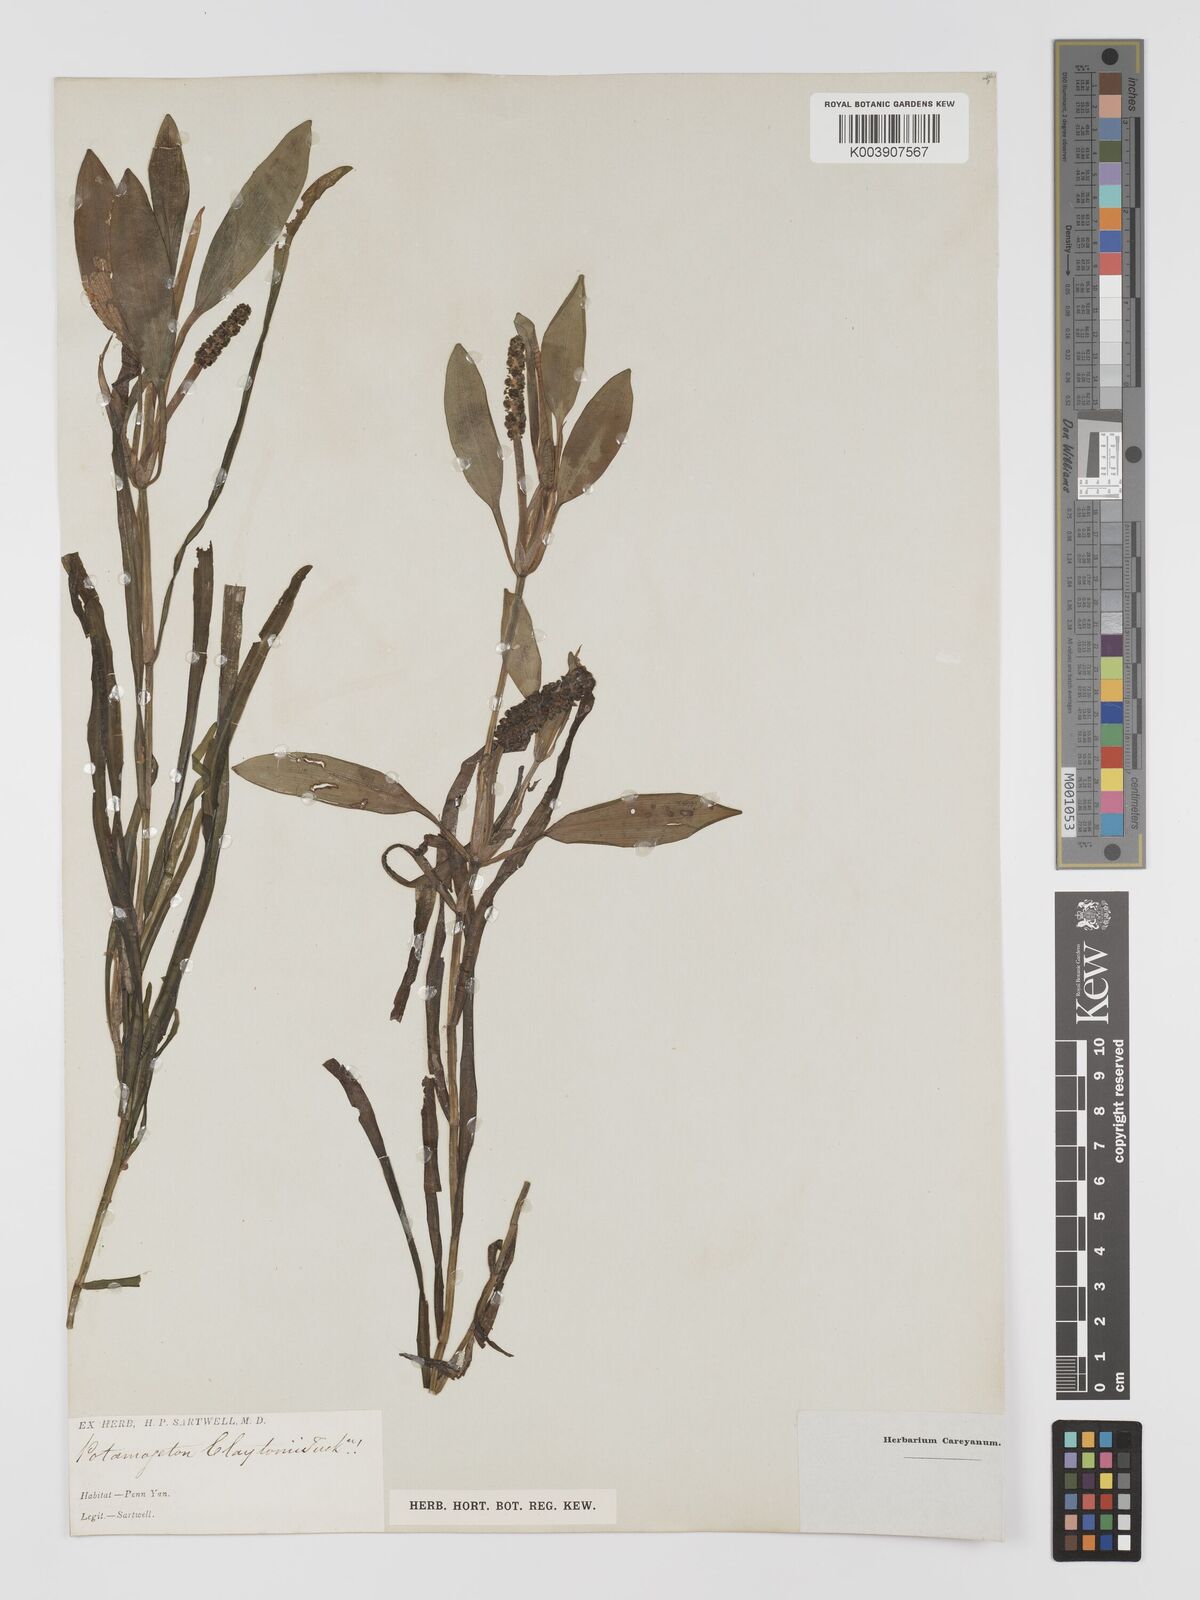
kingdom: Plantae
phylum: Tracheophyta
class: Liliopsida
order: Alismatales
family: Potamogetonaceae
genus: Potamogeton
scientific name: Potamogeton epihydrus
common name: American pondweed
